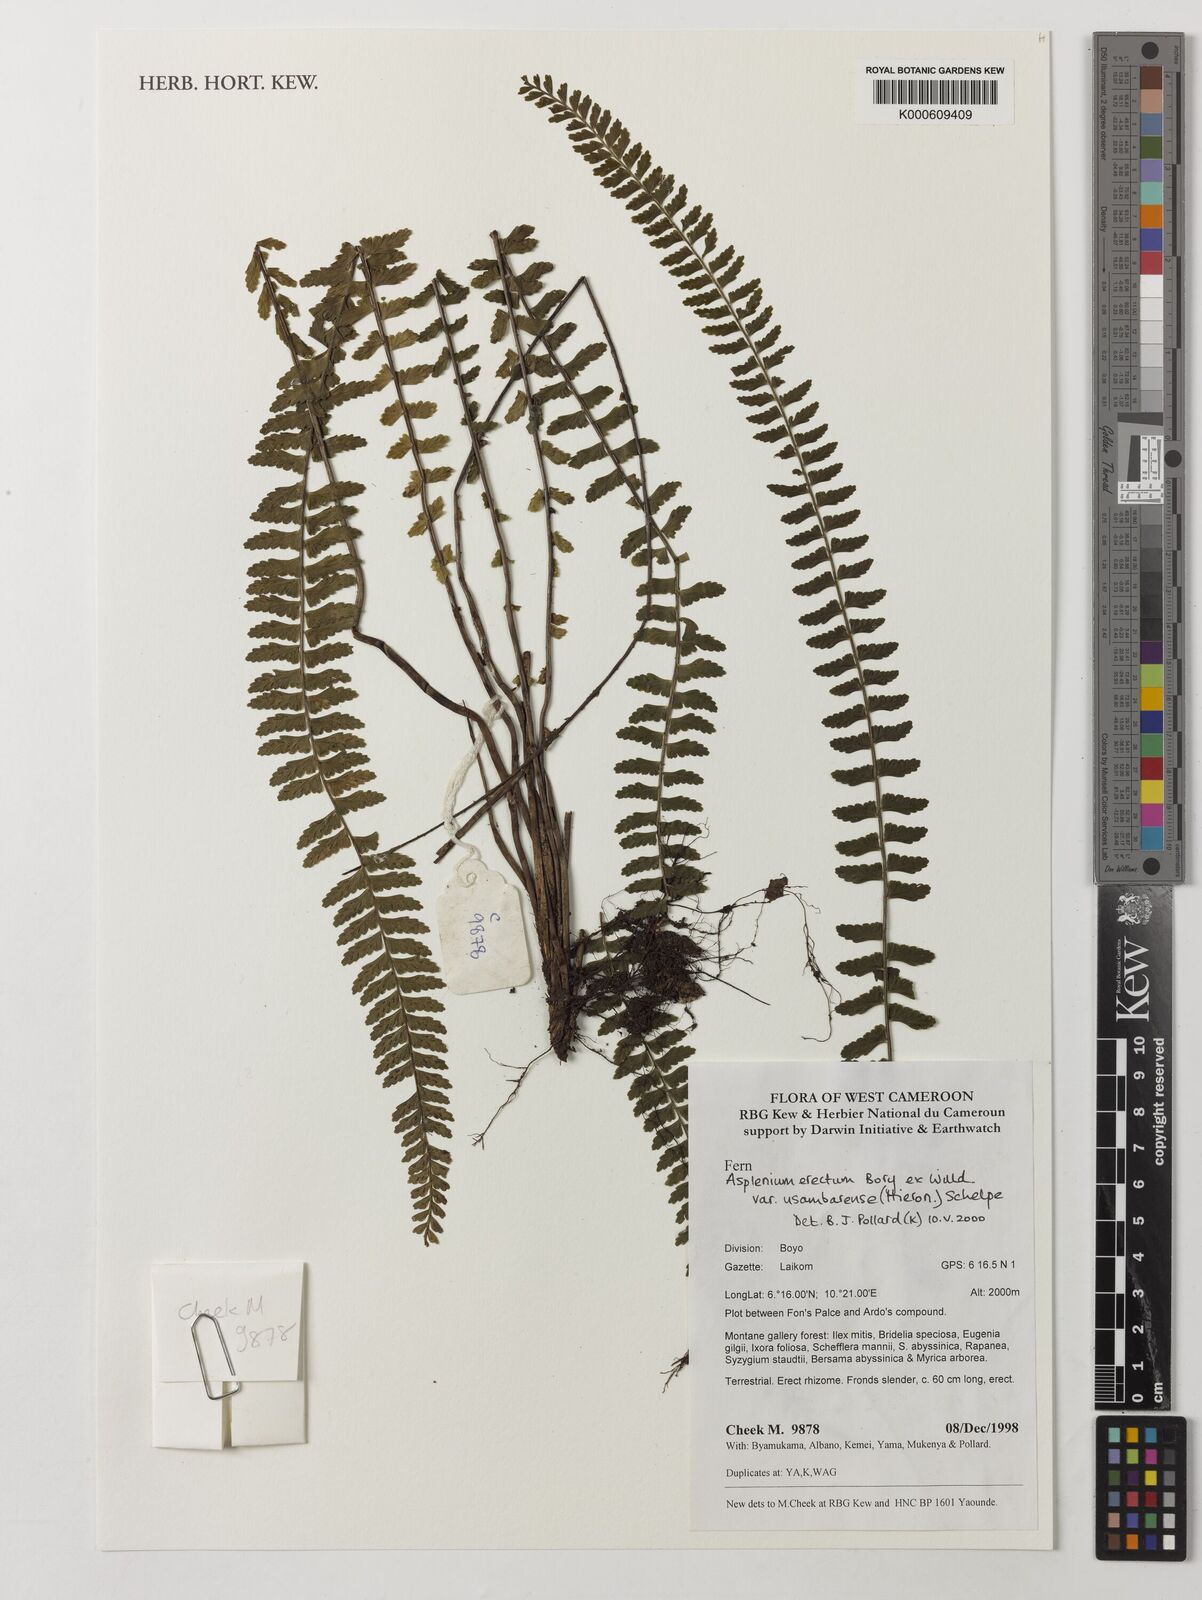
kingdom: Plantae
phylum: Tracheophyta
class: Polypodiopsida
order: Polypodiales
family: Aspleniaceae
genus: Asplenium
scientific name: Asplenium erectum
